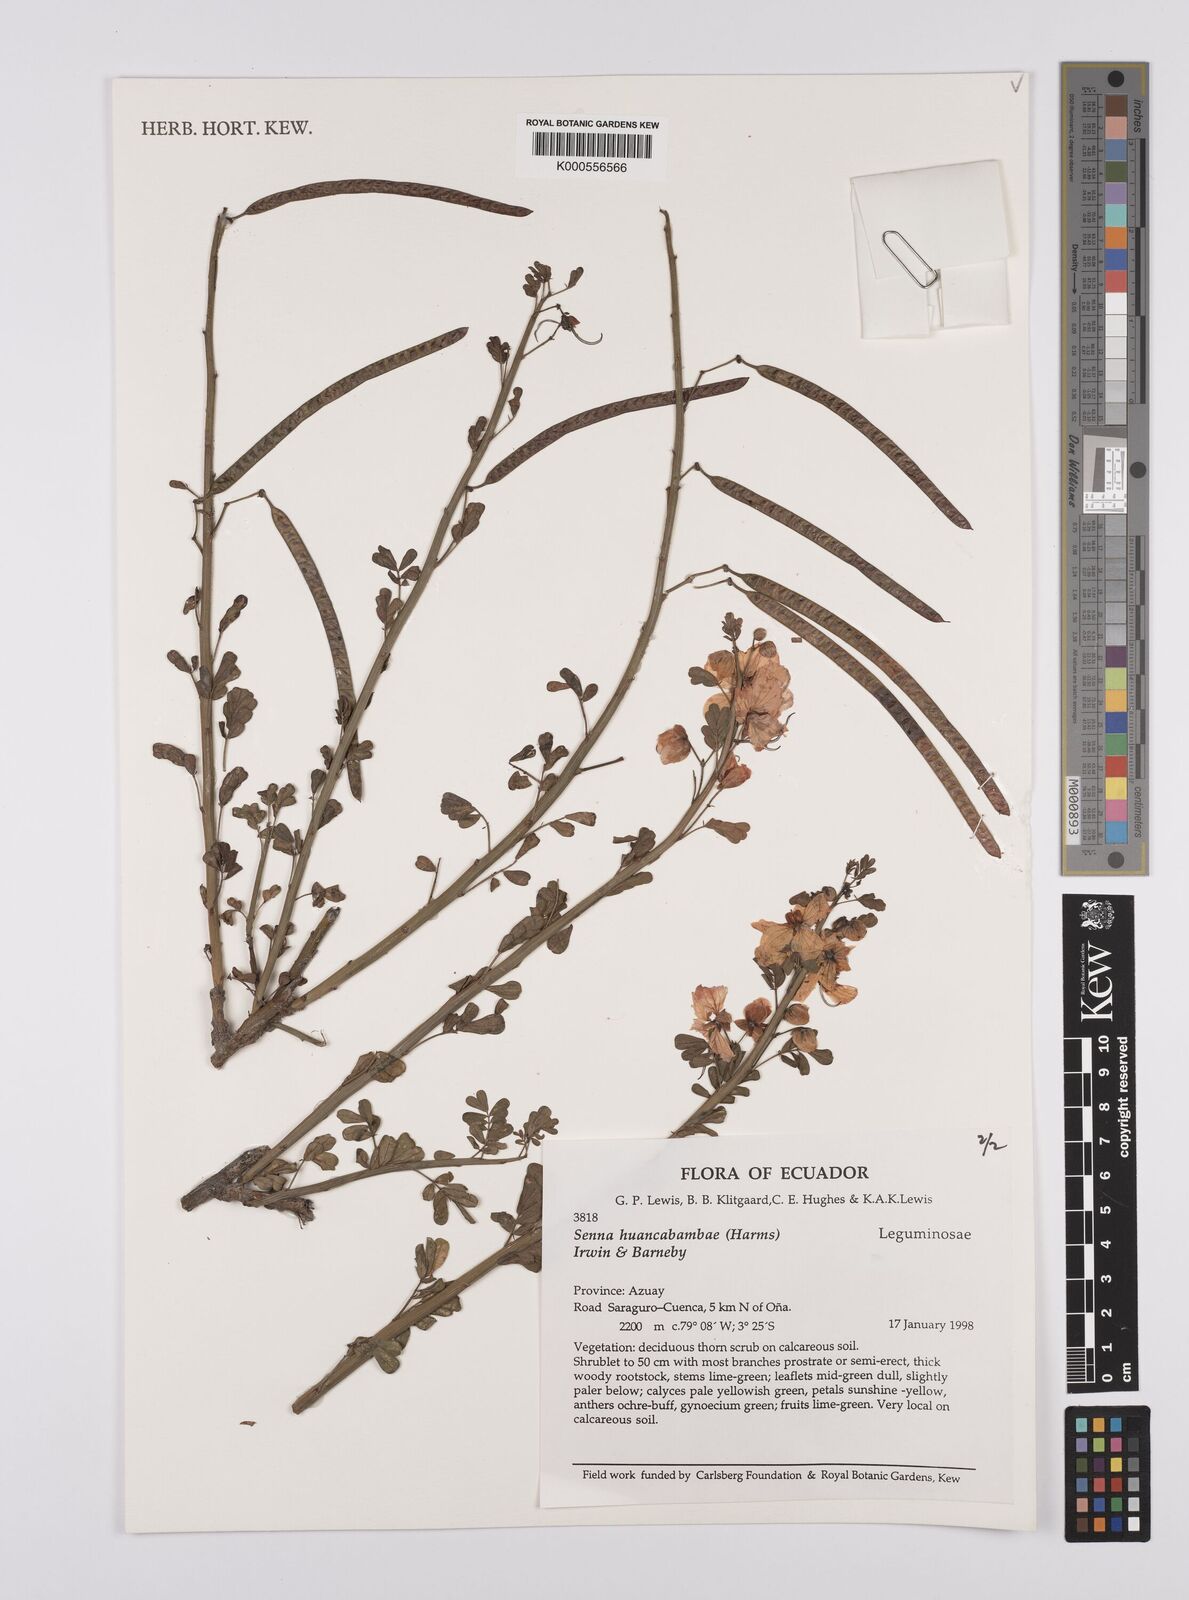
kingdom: Plantae
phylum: Tracheophyta
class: Magnoliopsida
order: Fabales
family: Fabaceae
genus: Senna
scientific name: Senna huancabambae
